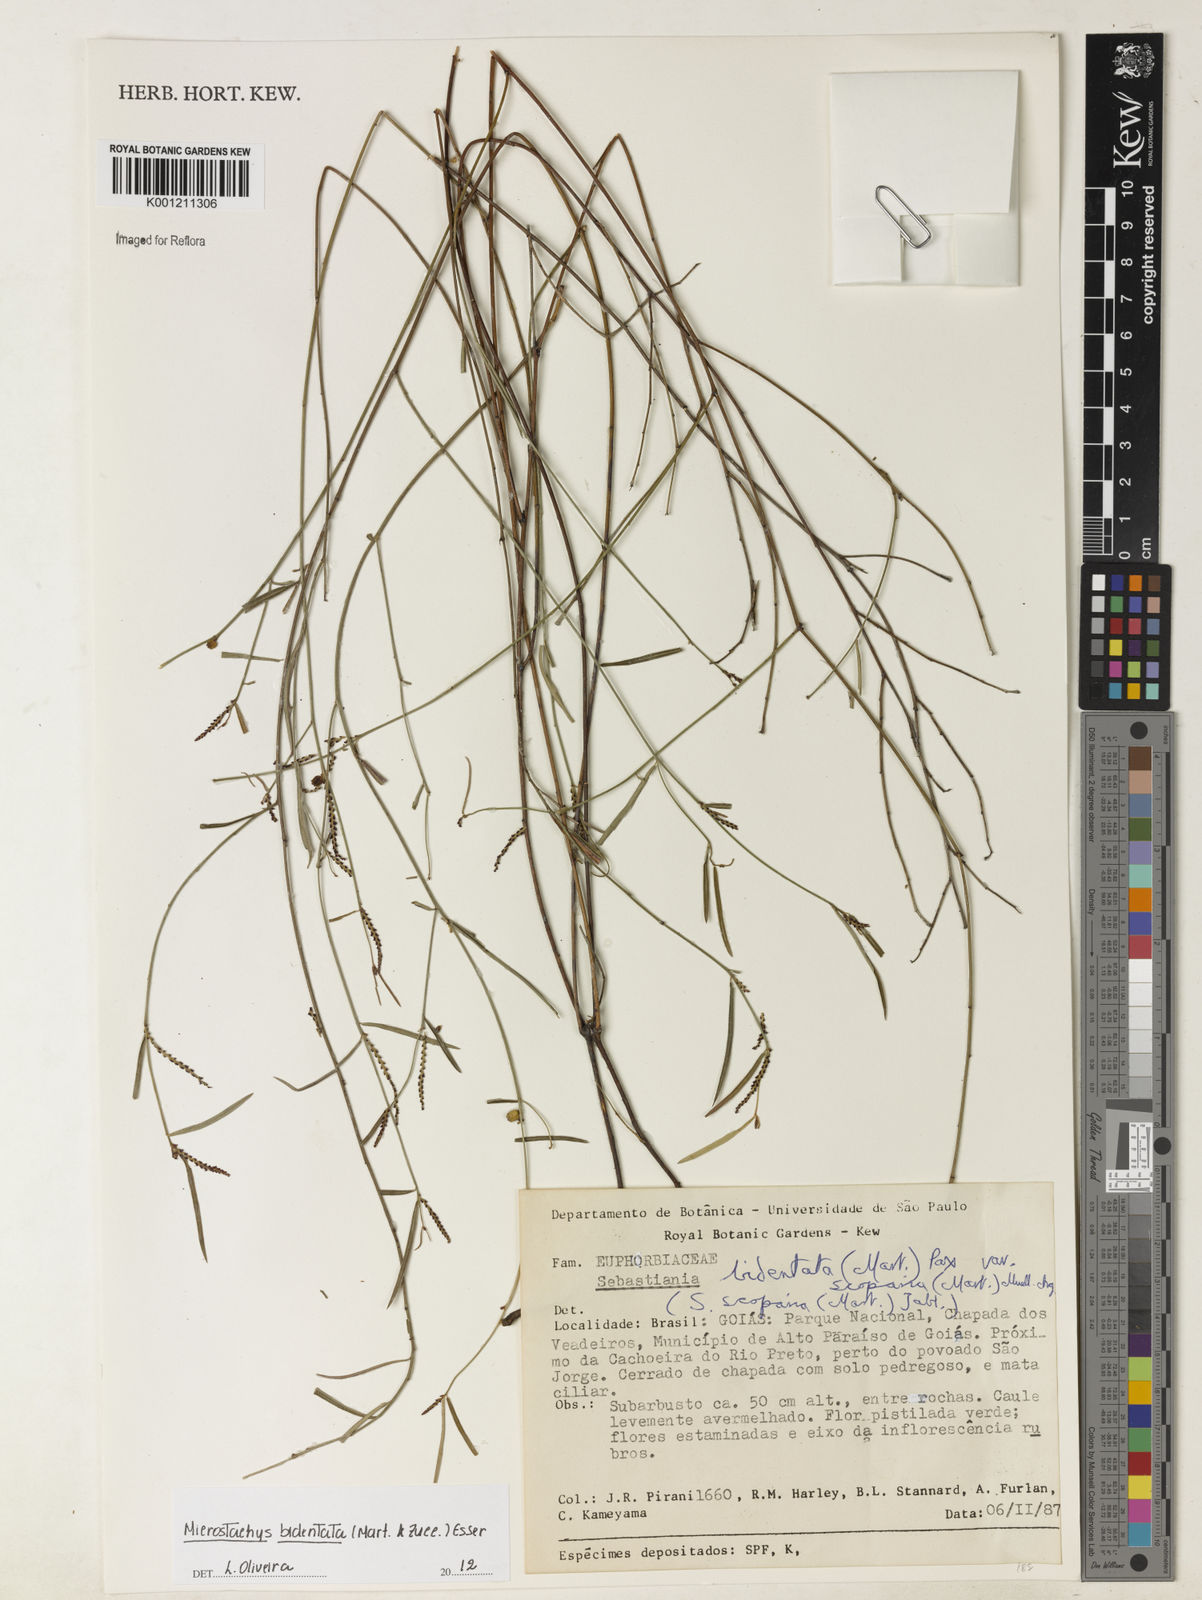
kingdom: Plantae
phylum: Tracheophyta
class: Magnoliopsida
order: Malpighiales
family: Euphorbiaceae
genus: Microstachys
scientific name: Microstachys bidentata
